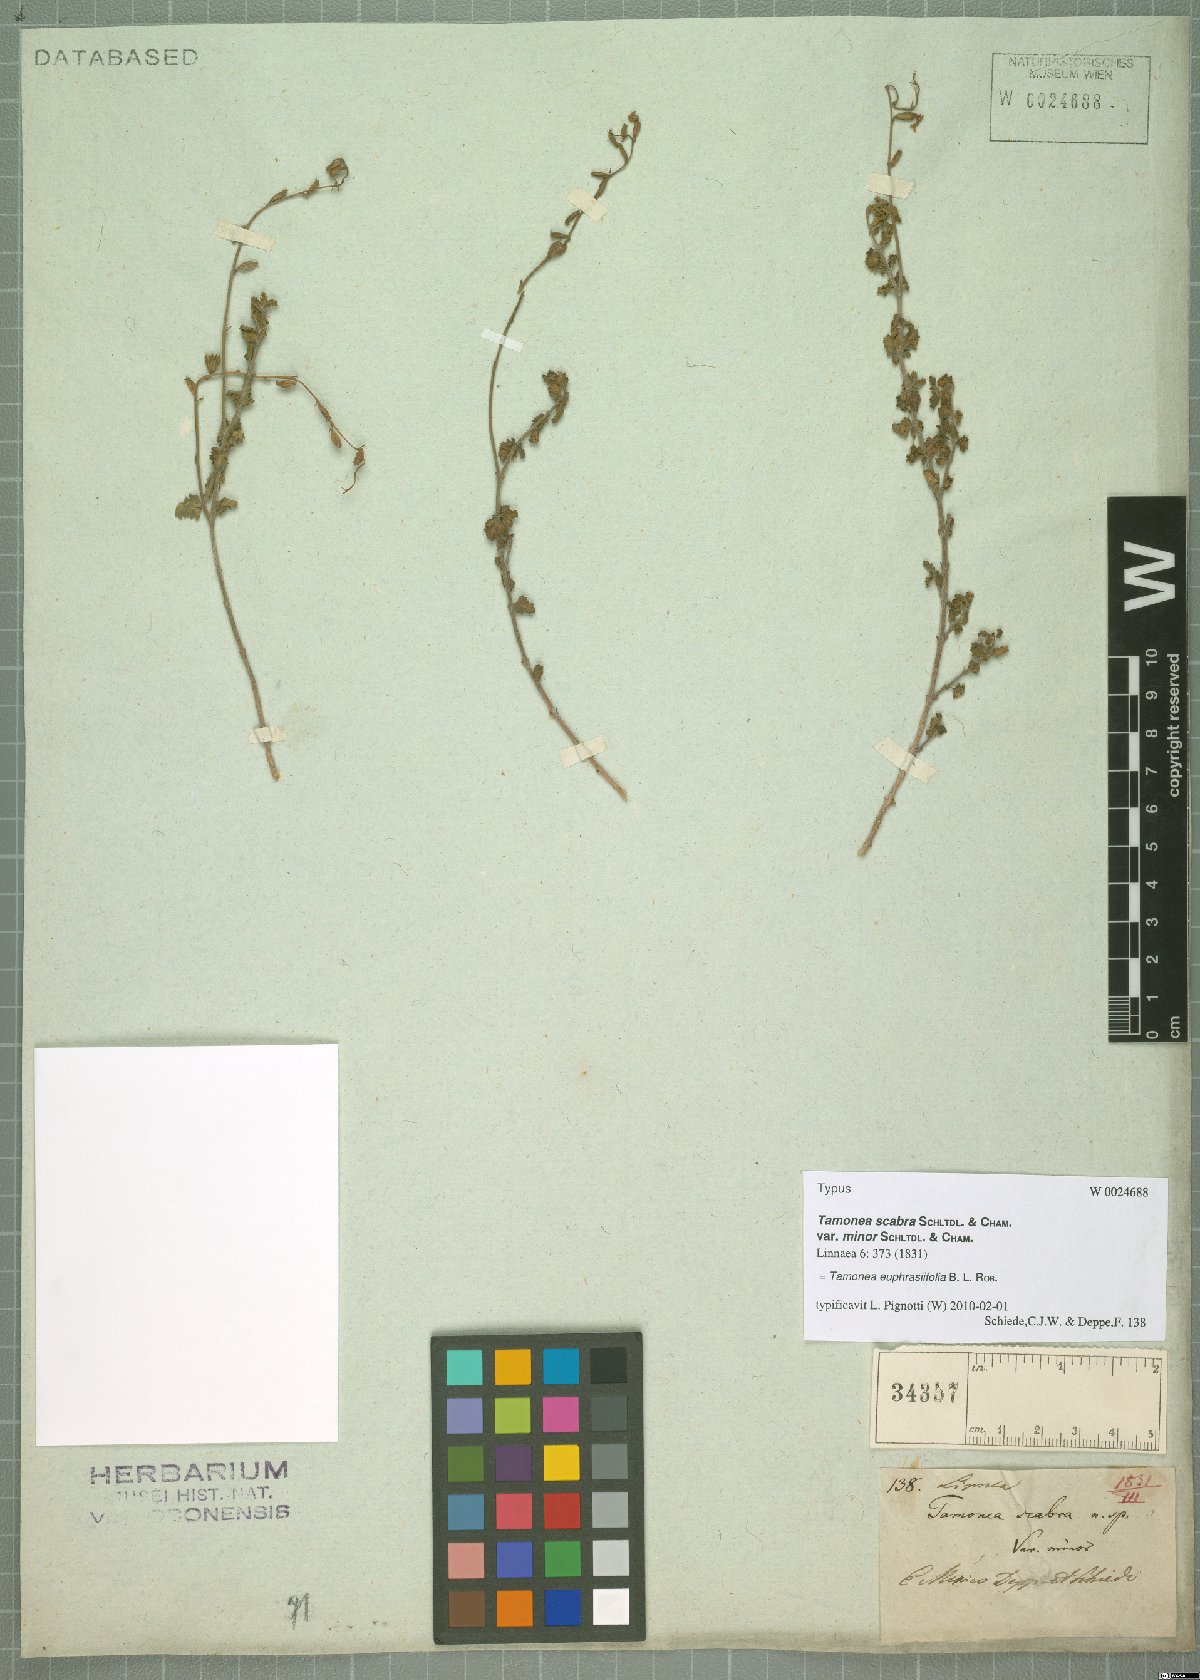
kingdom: Plantae
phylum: Tracheophyta
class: Magnoliopsida
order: Lamiales
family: Verbenaceae
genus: Tamonea
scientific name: Tamonea euphrasiifolia
